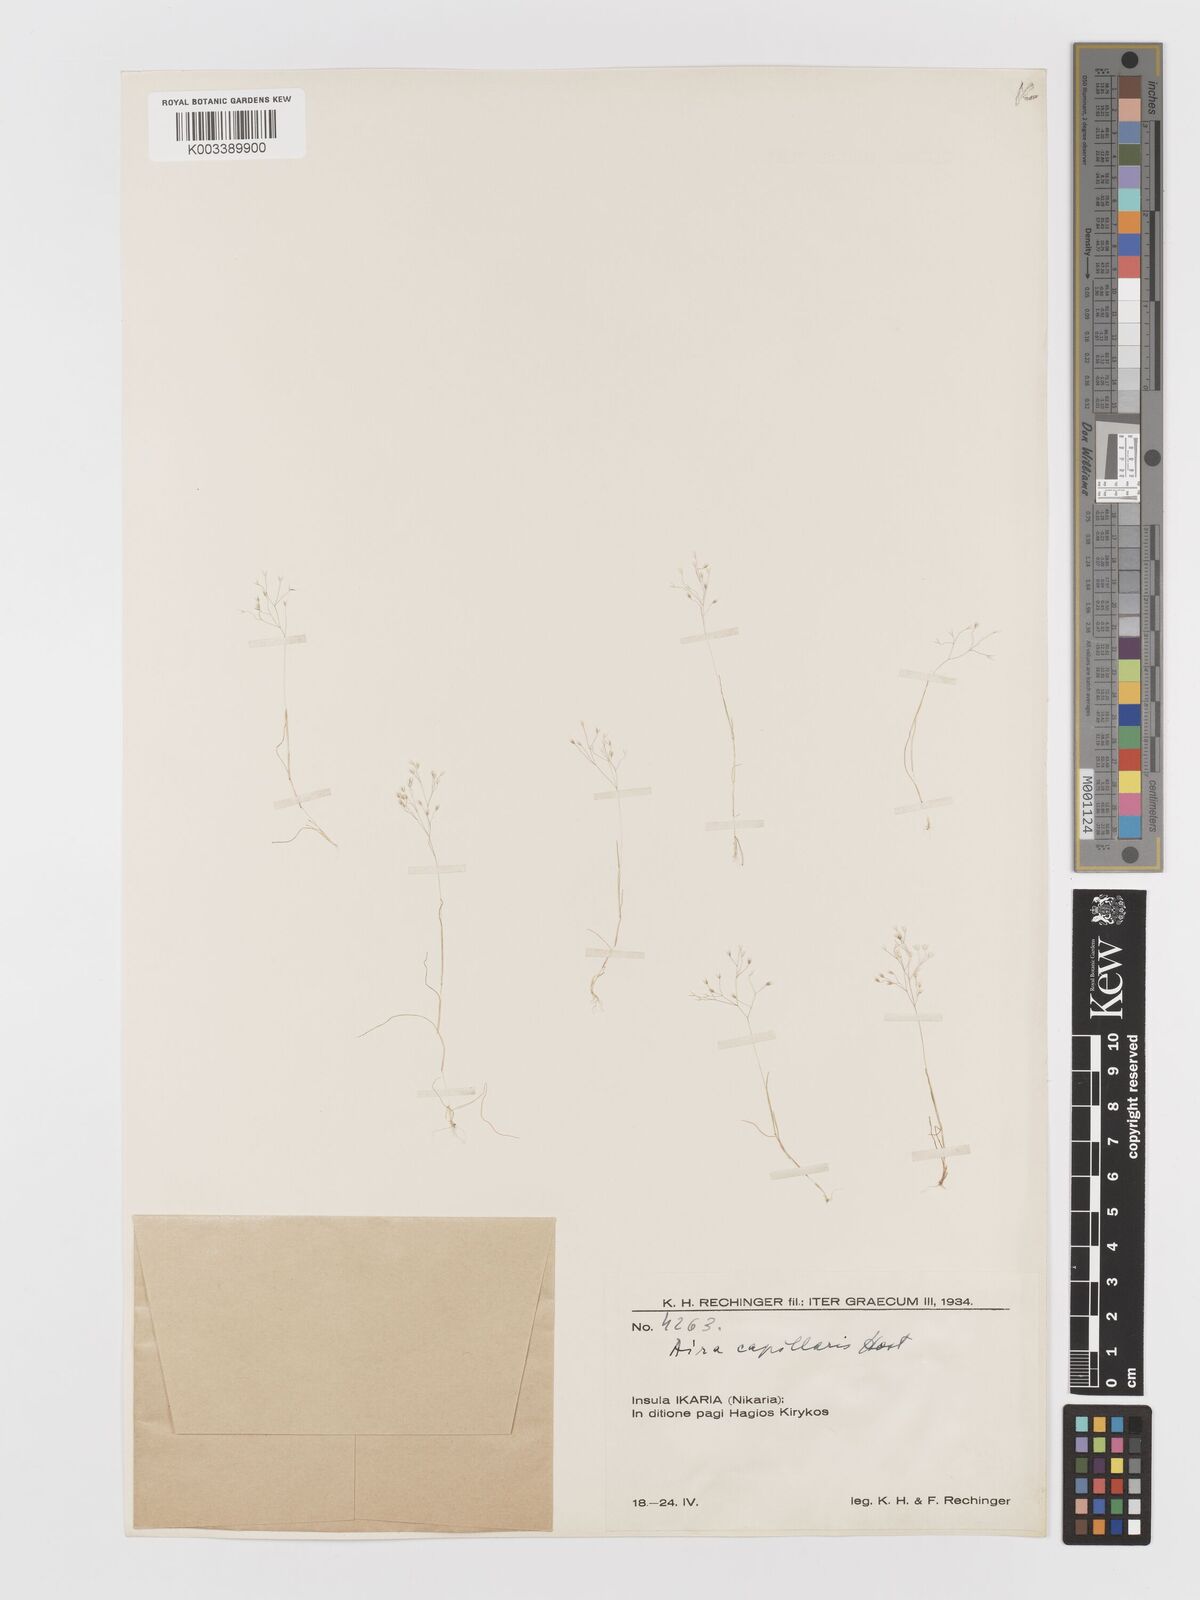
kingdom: Plantae
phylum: Tracheophyta
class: Liliopsida
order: Poales
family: Poaceae
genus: Aira
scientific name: Aira elegans
